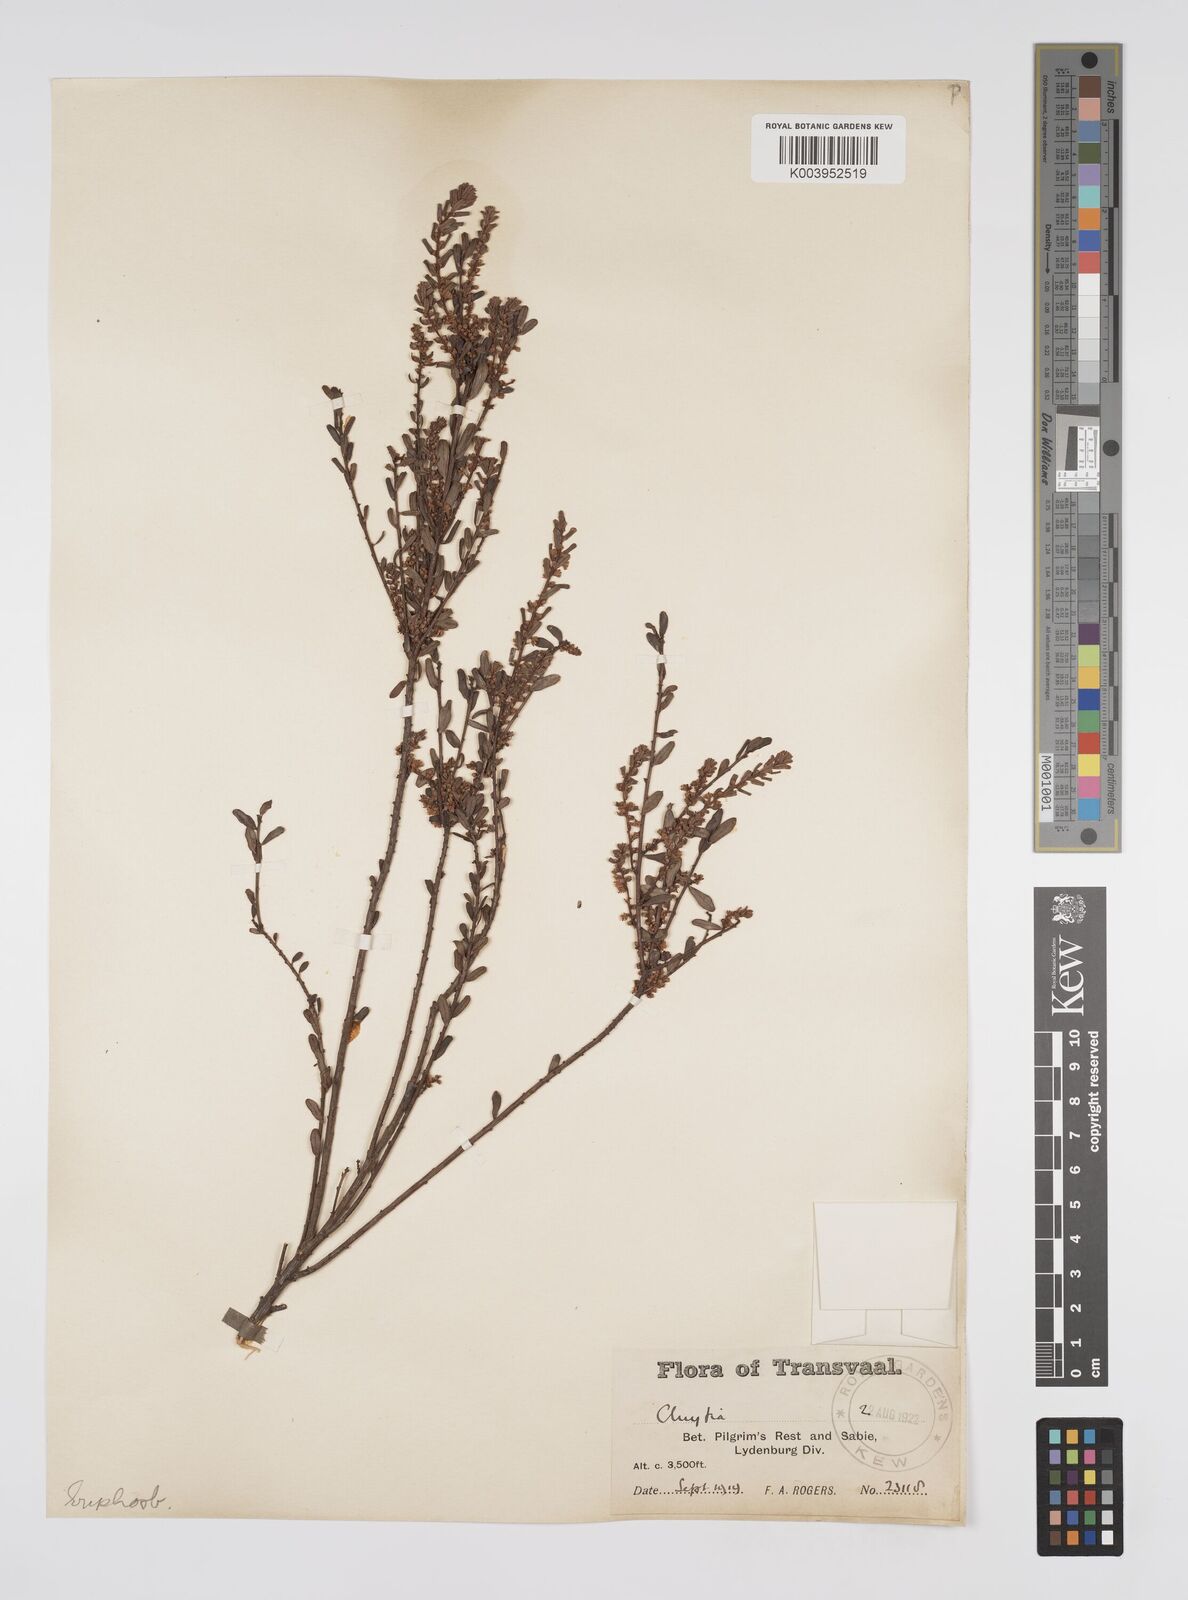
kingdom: Plantae
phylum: Tracheophyta
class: Magnoliopsida
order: Malpighiales
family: Peraceae
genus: Clutia
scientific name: Clutia
